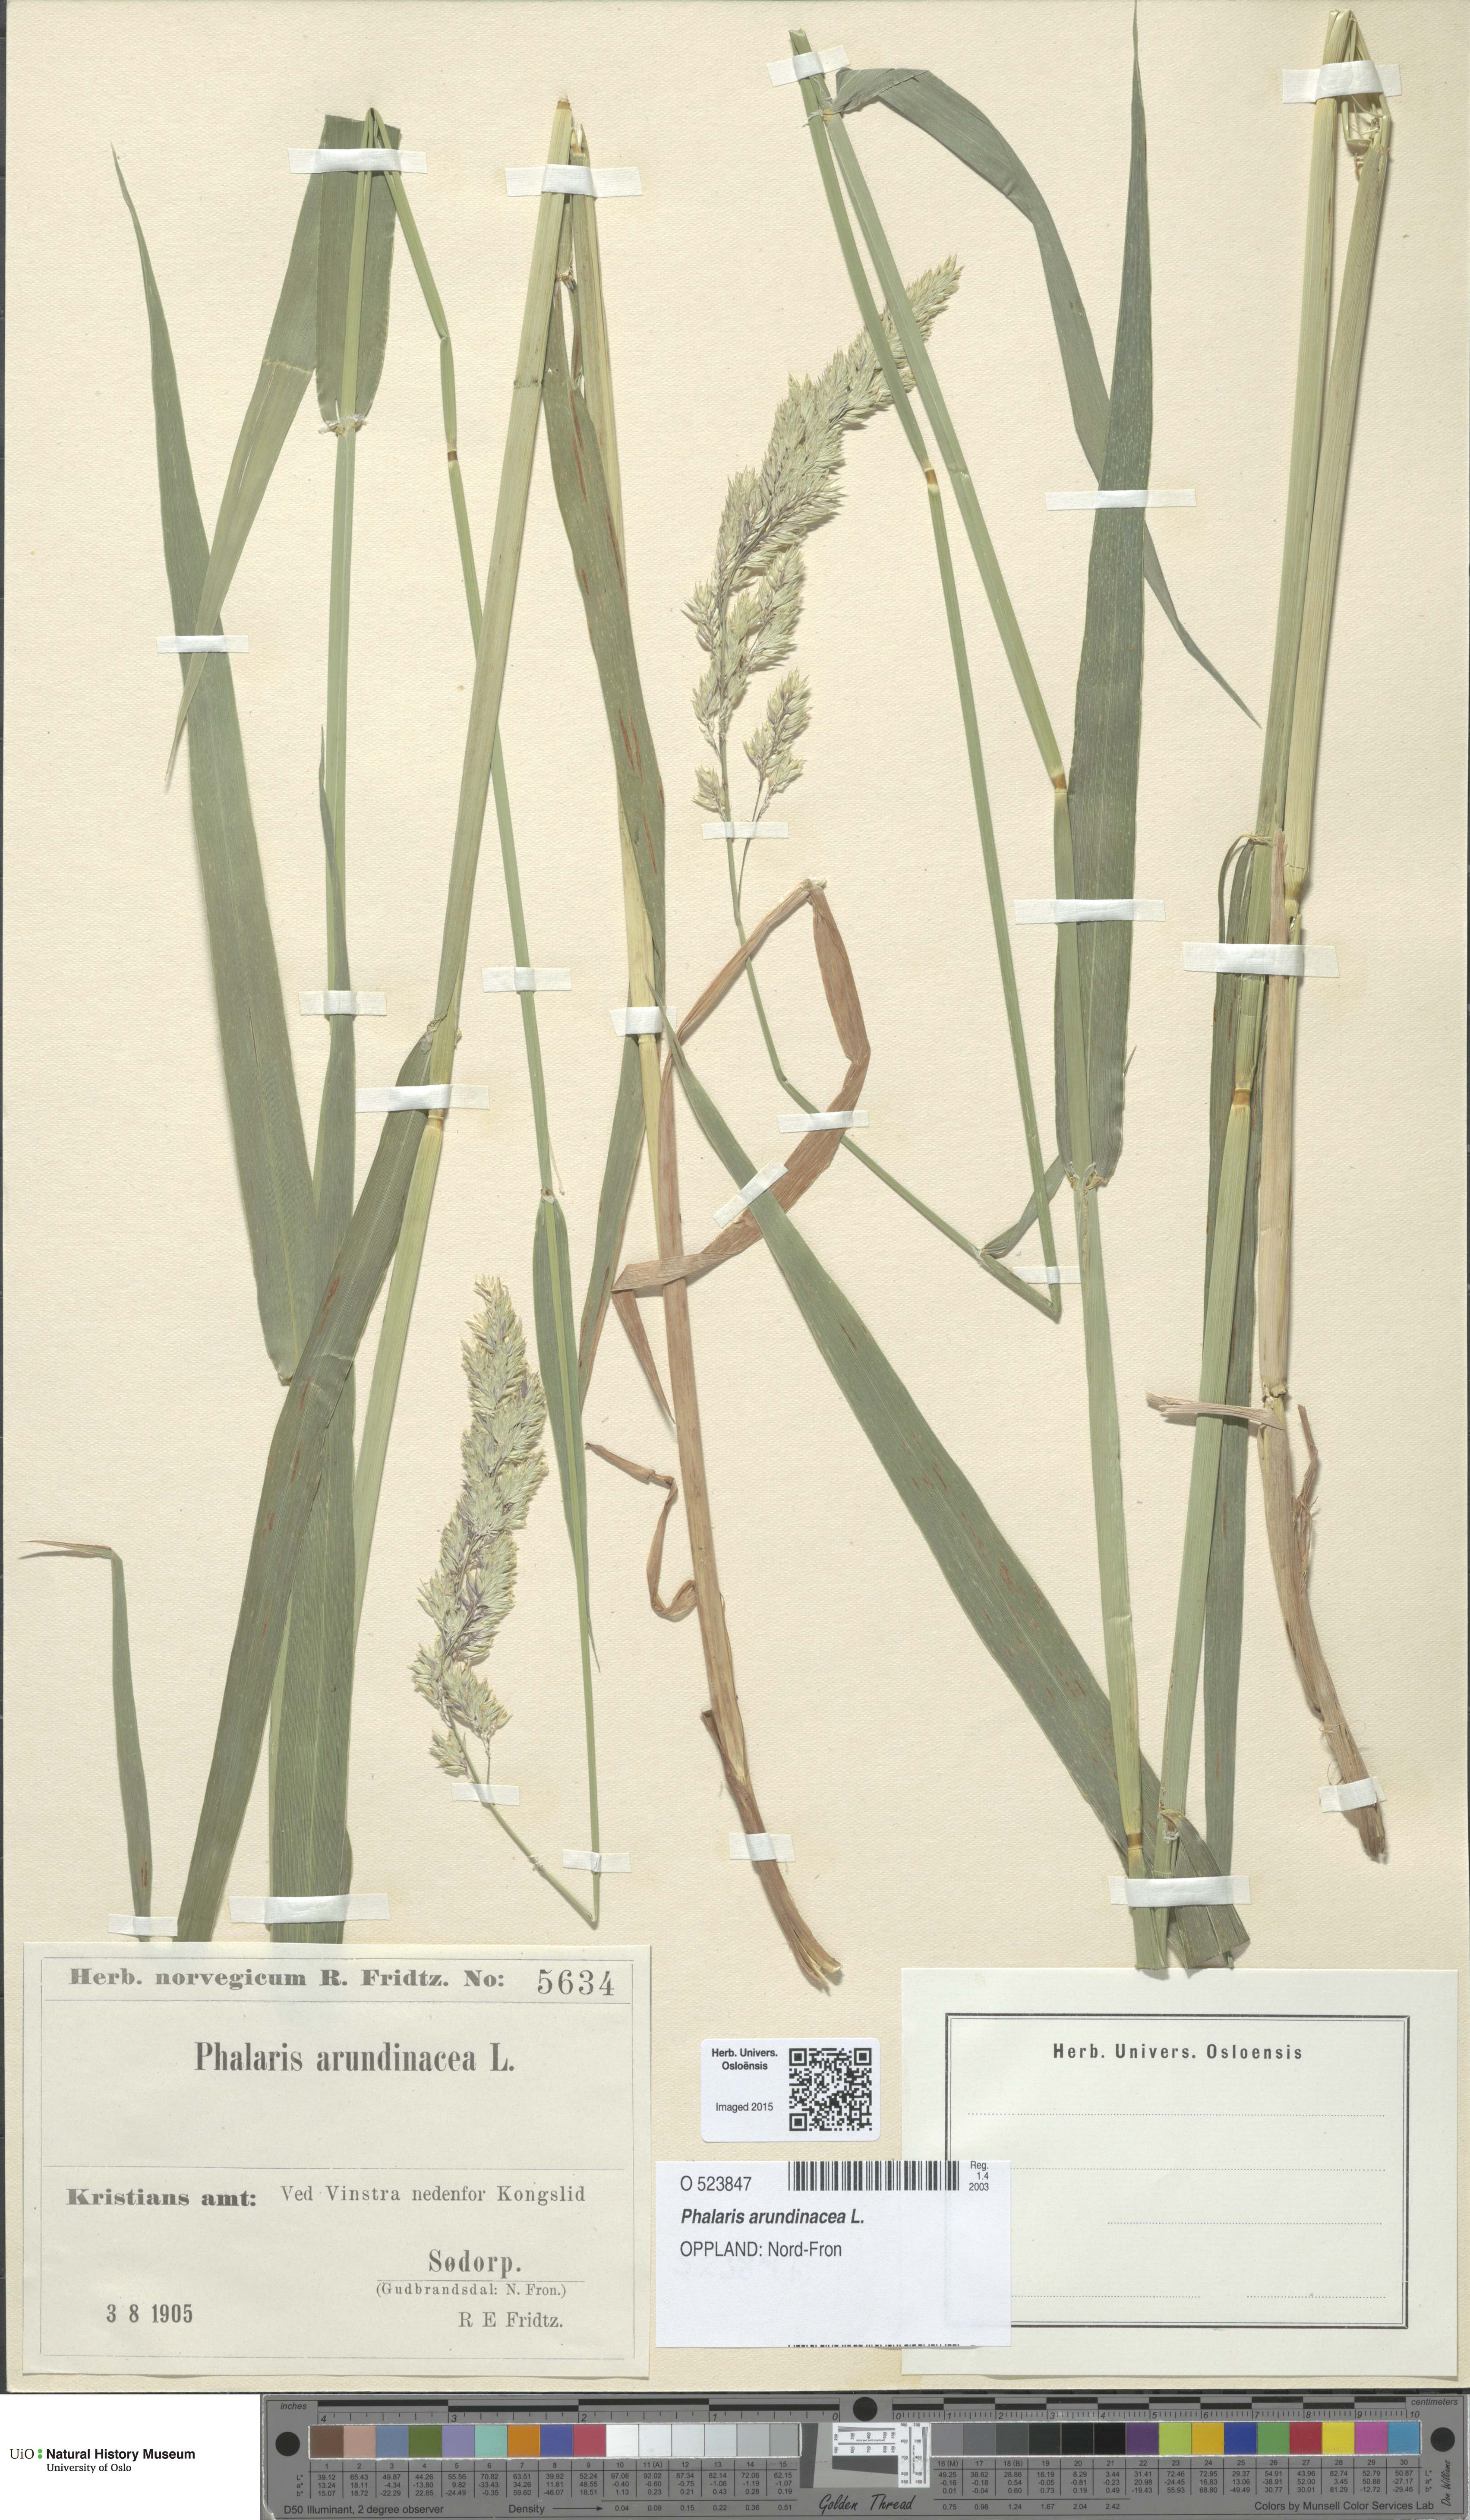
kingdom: Plantae
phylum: Tracheophyta
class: Liliopsida
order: Poales
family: Poaceae
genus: Phalaris
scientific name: Phalaris arundinacea
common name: Reed canary-grass
